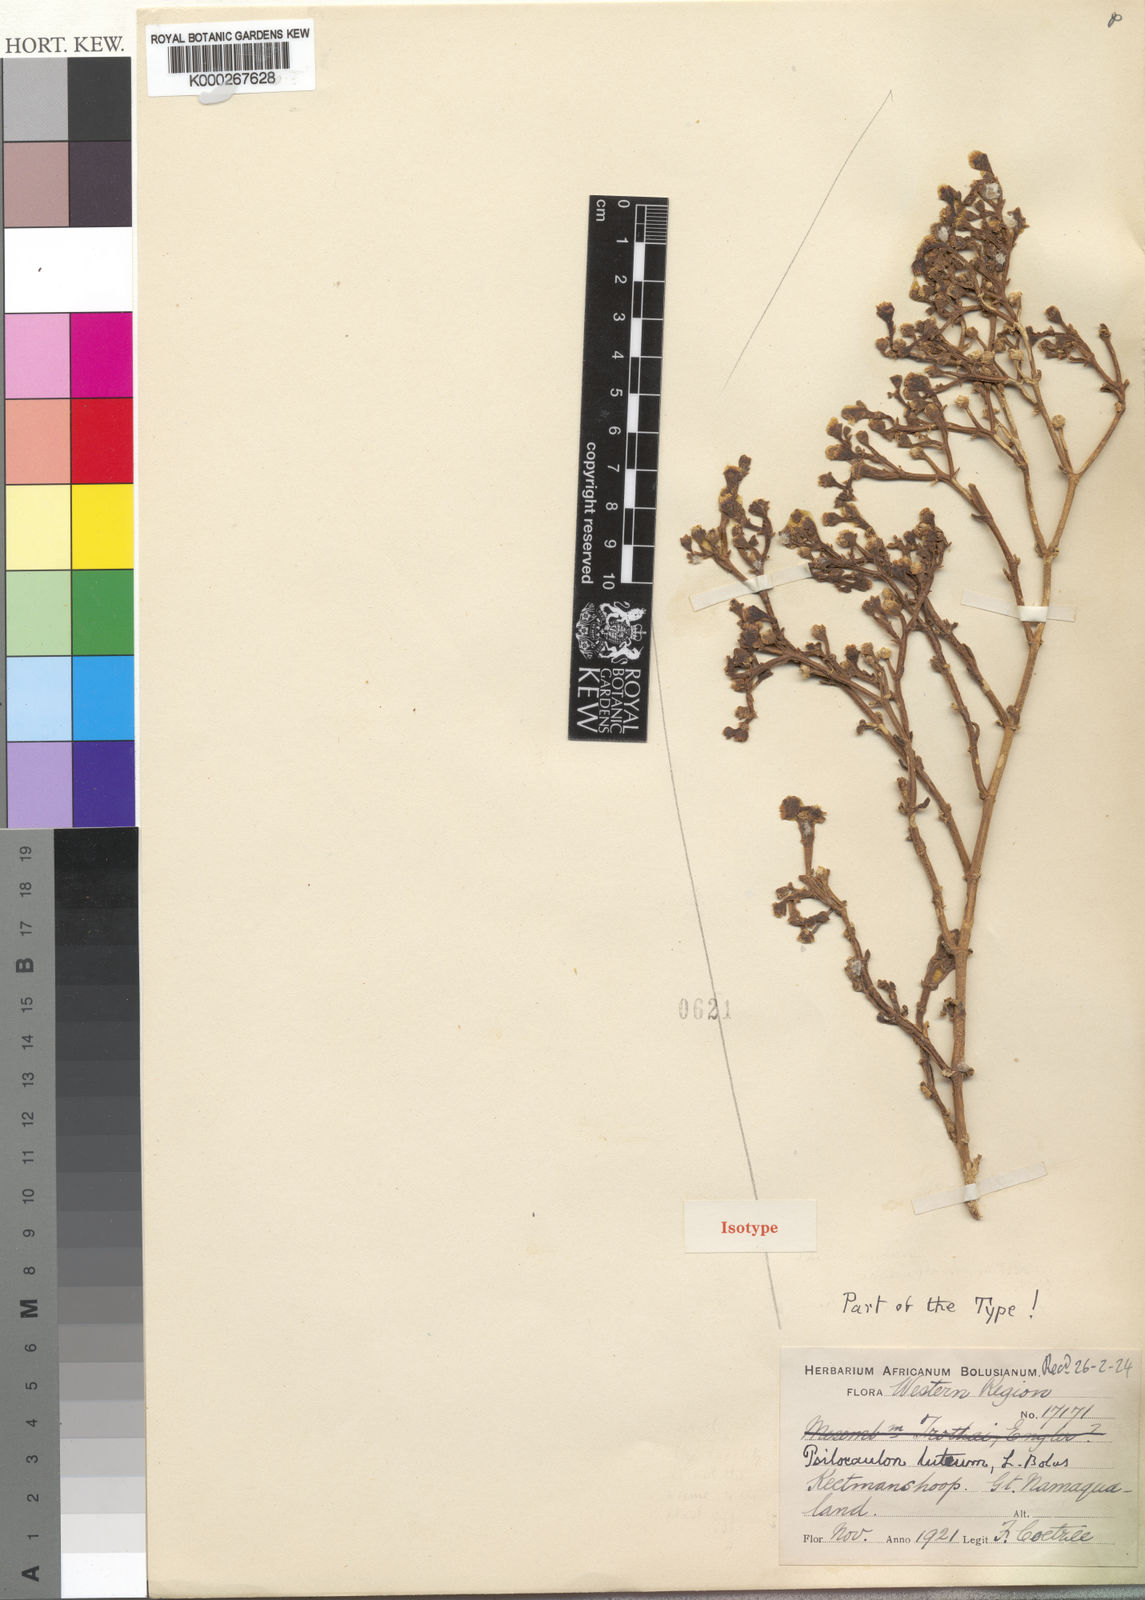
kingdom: Plantae
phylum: Tracheophyta
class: Magnoliopsida
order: Caryophyllales
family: Aizoaceae
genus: Mesembryanthemum
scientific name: Mesembryanthemum
